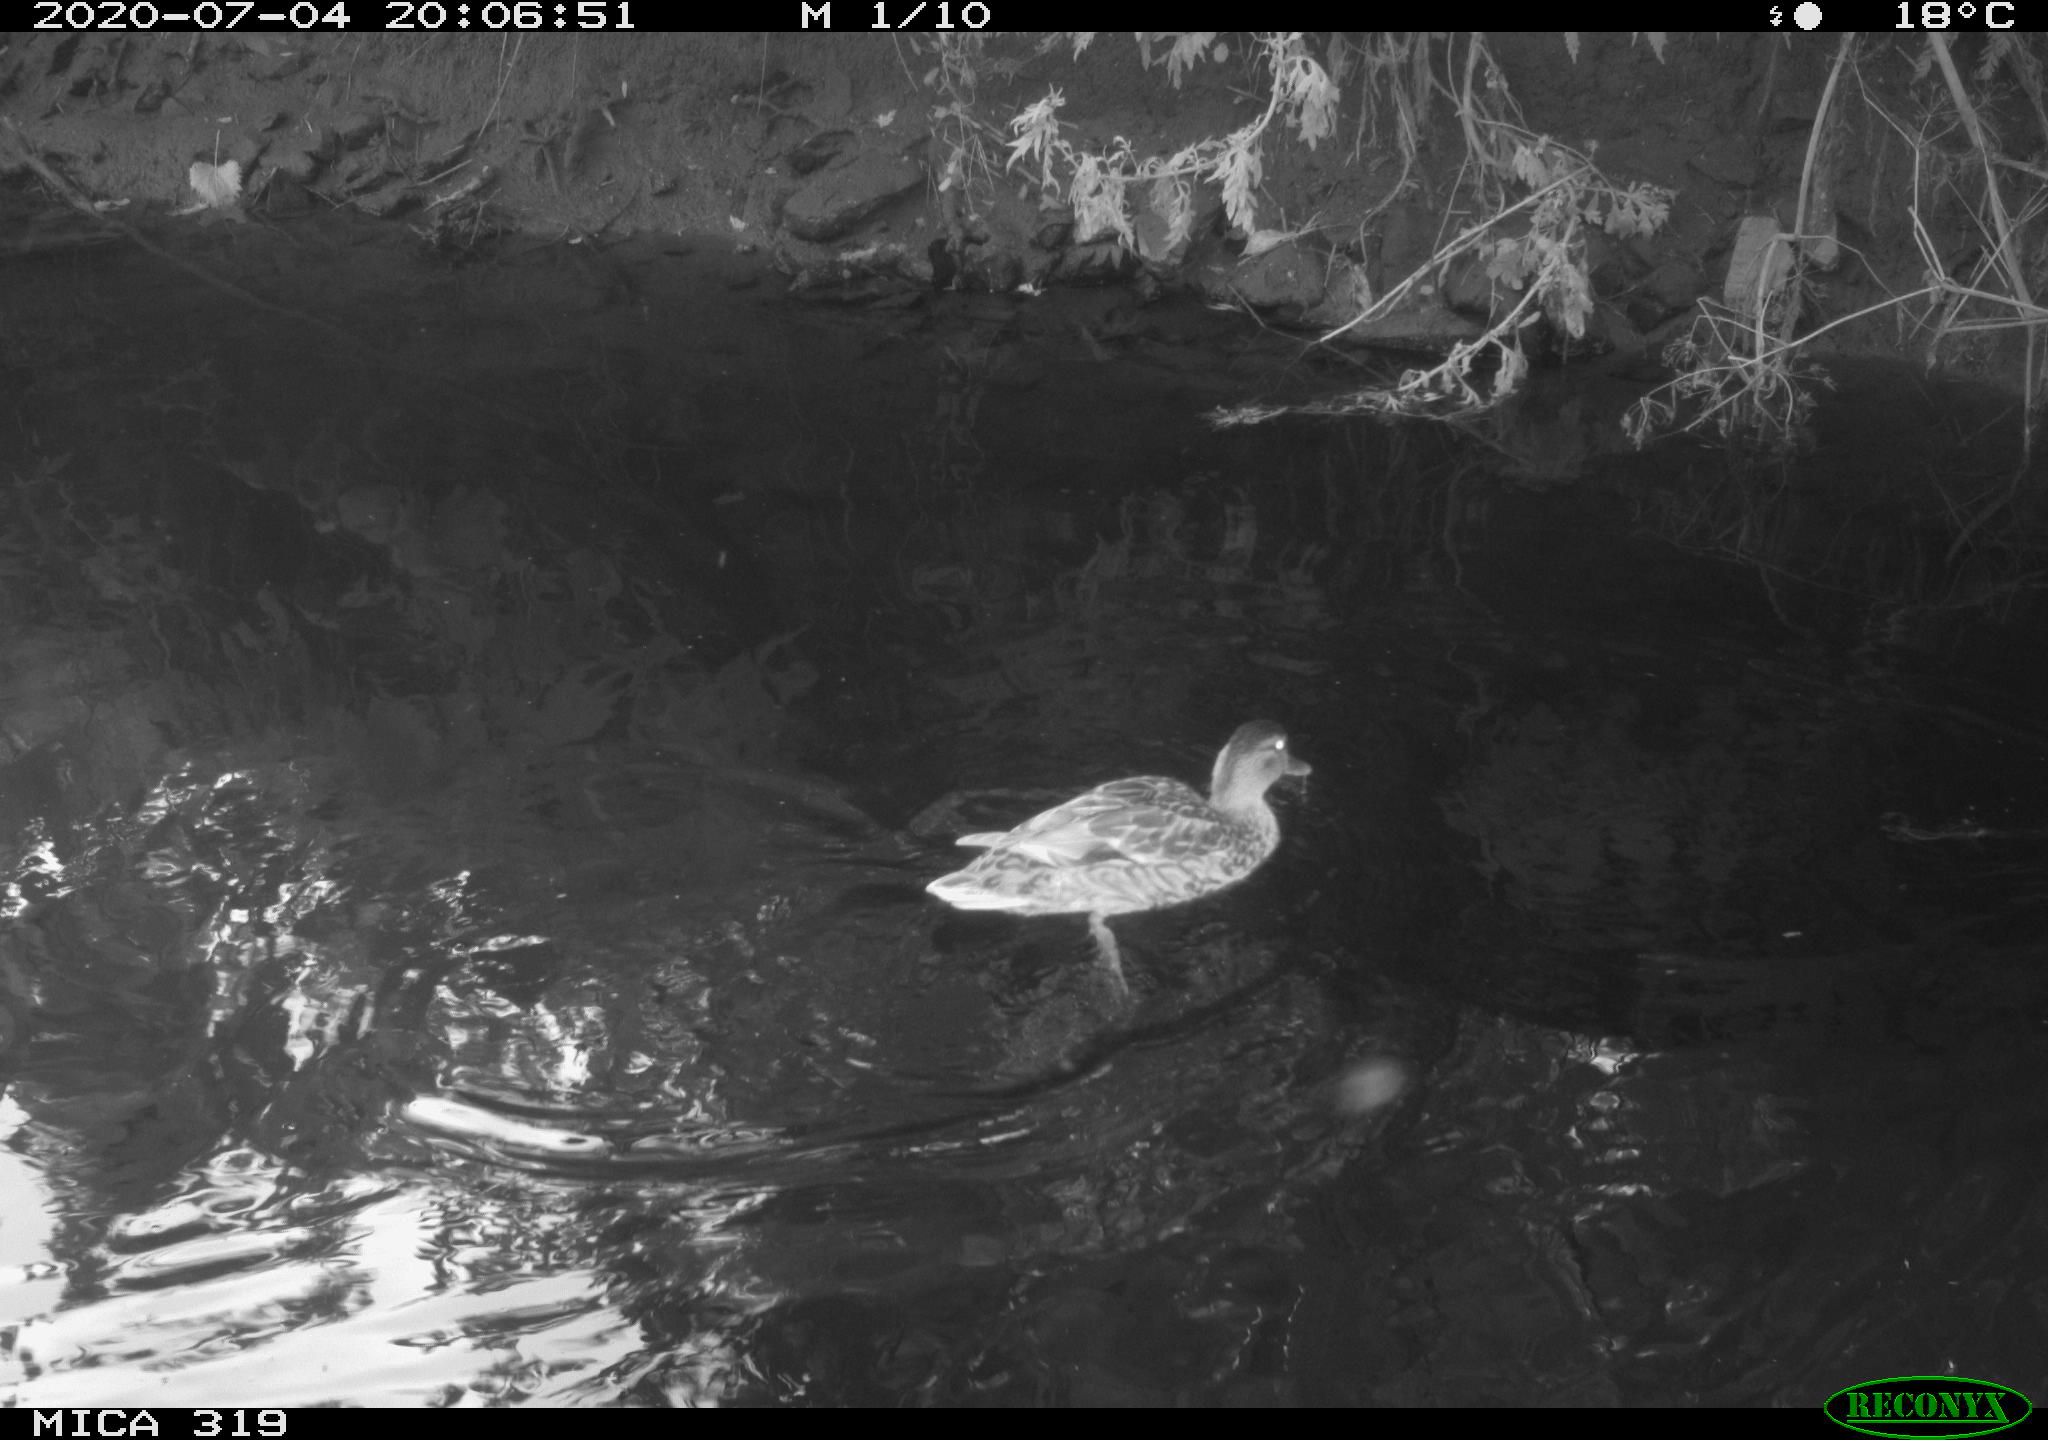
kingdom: Animalia
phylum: Chordata
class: Aves
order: Anseriformes
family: Anatidae
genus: Anas
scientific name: Anas platyrhynchos
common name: Mallard
